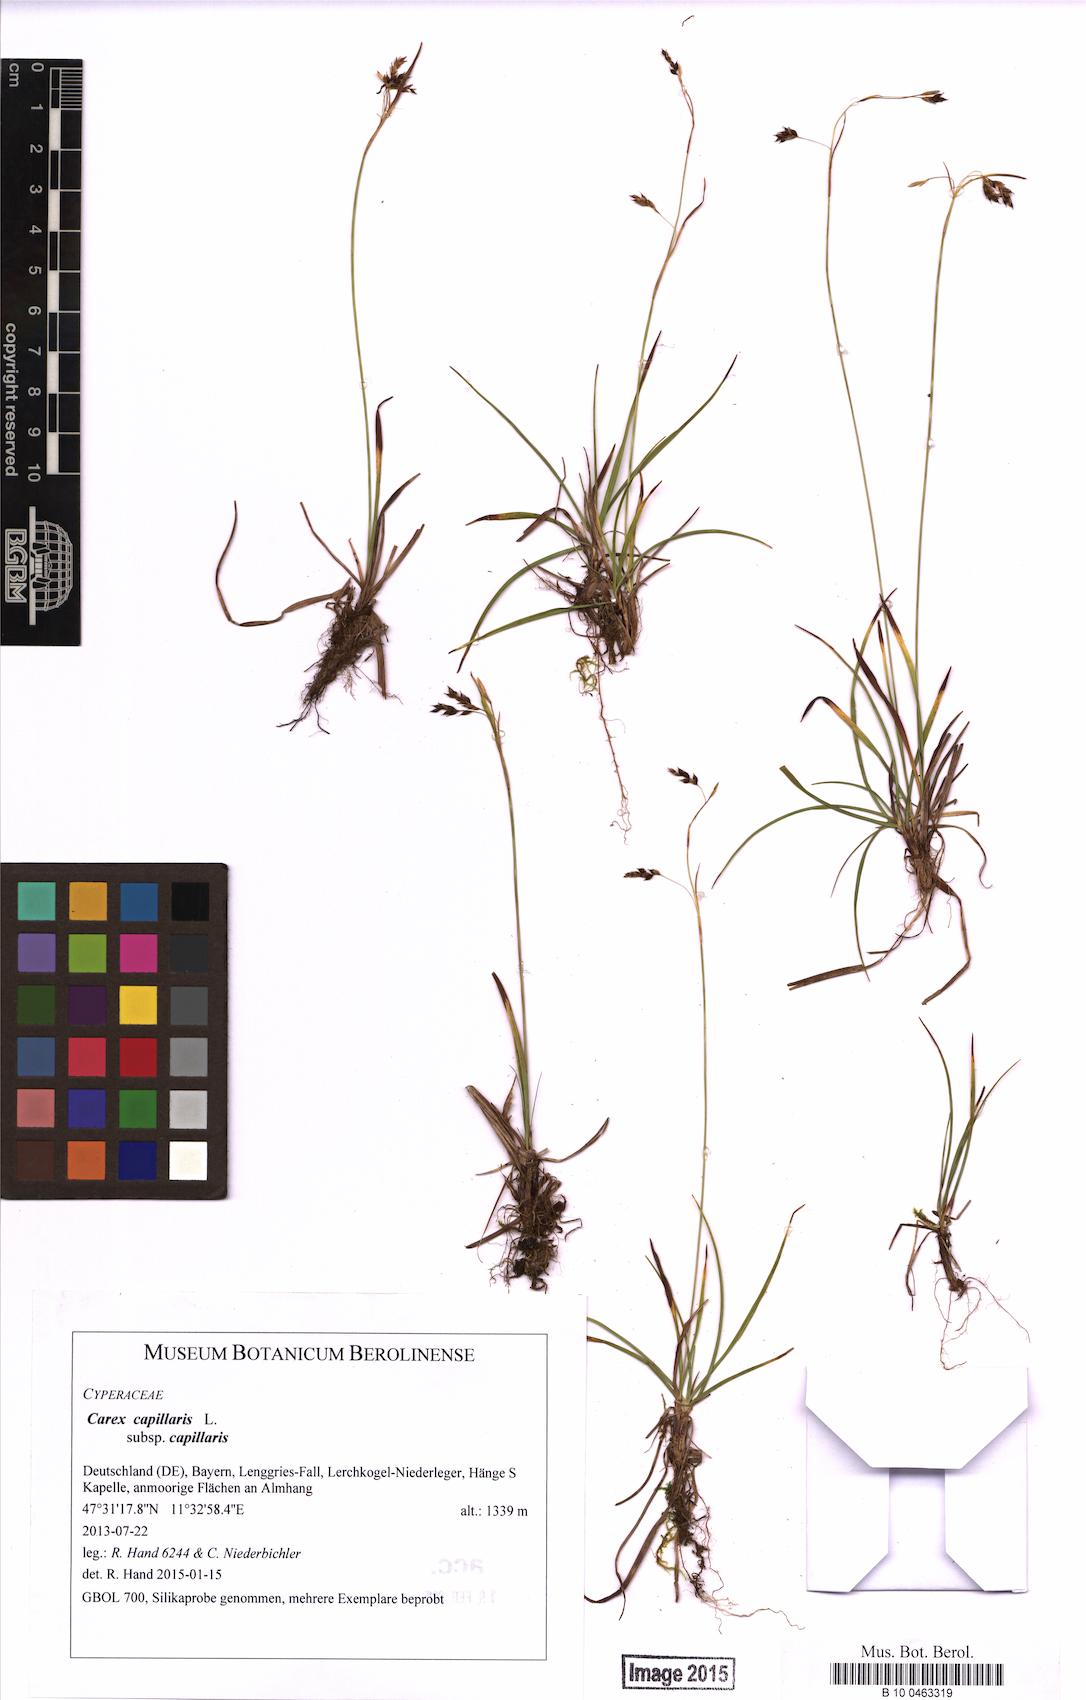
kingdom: Plantae
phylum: Tracheophyta
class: Liliopsida
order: Poales
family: Cyperaceae
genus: Carex
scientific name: Carex capillaris
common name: Hair sedge
